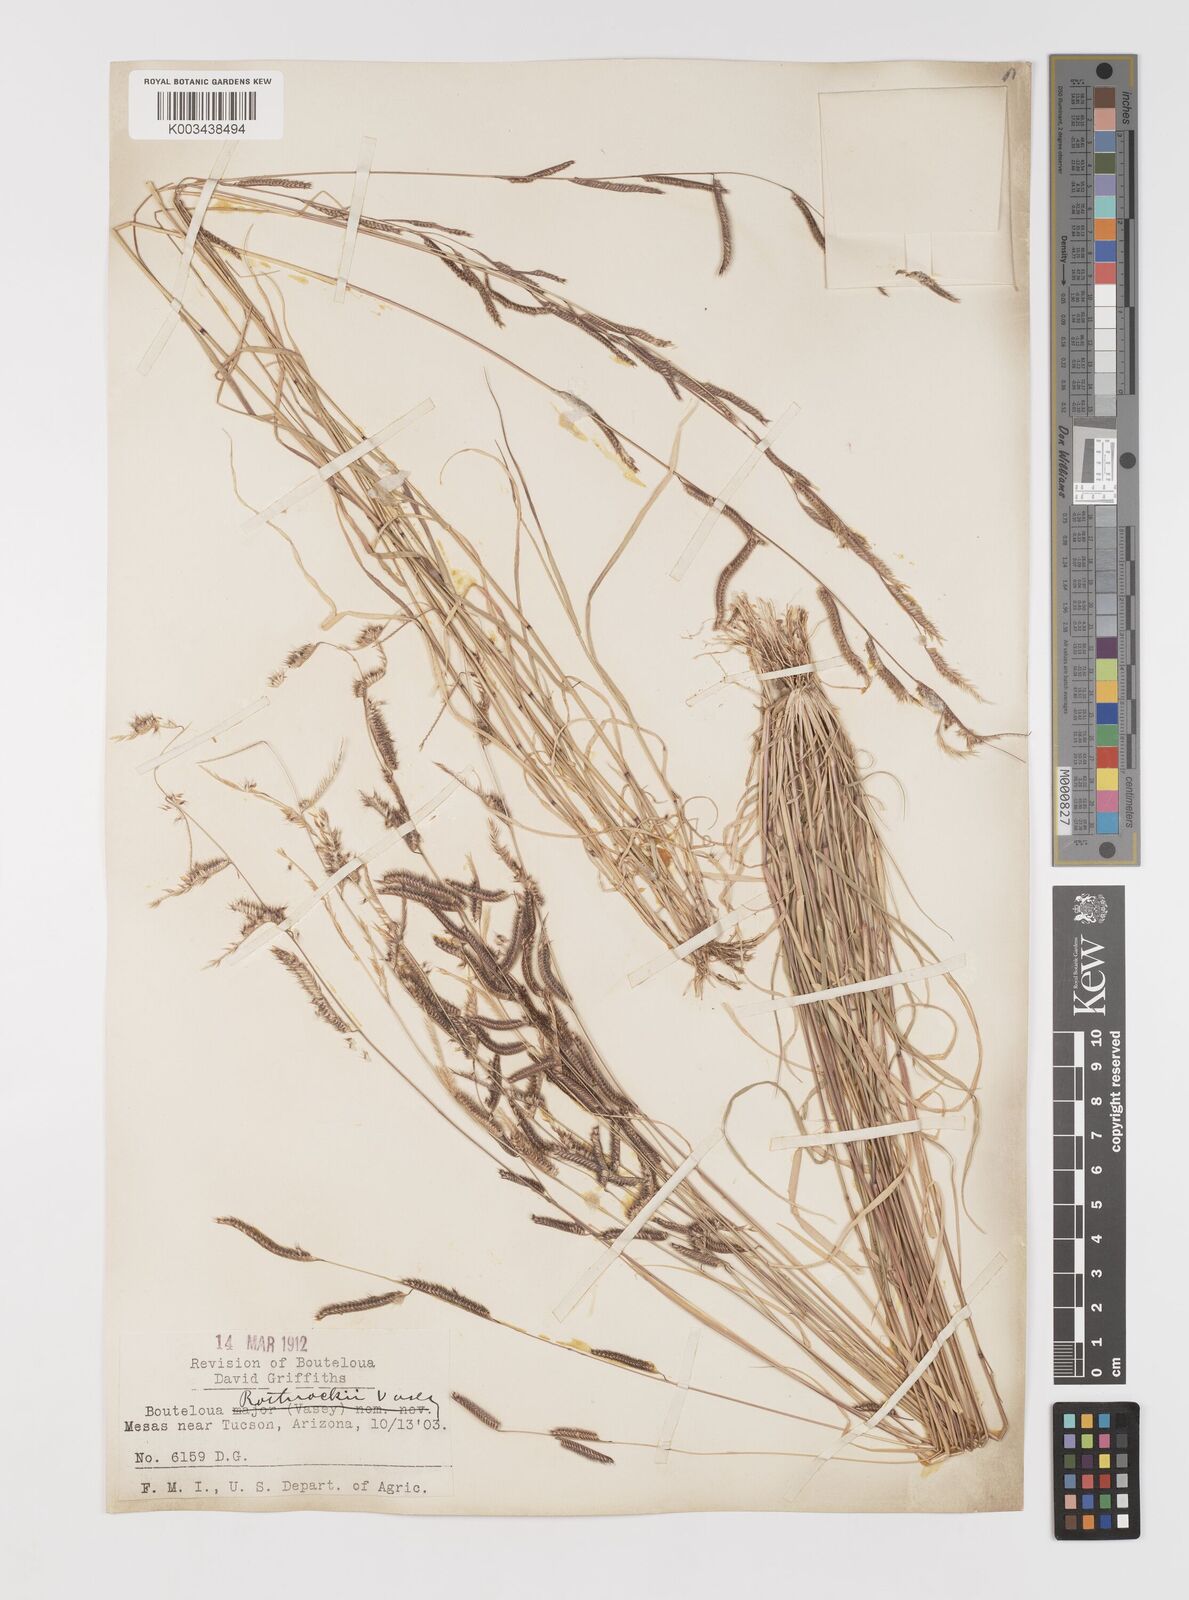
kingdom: Plantae
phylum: Tracheophyta
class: Liliopsida
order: Poales
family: Poaceae
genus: Bouteloua
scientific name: Bouteloua
